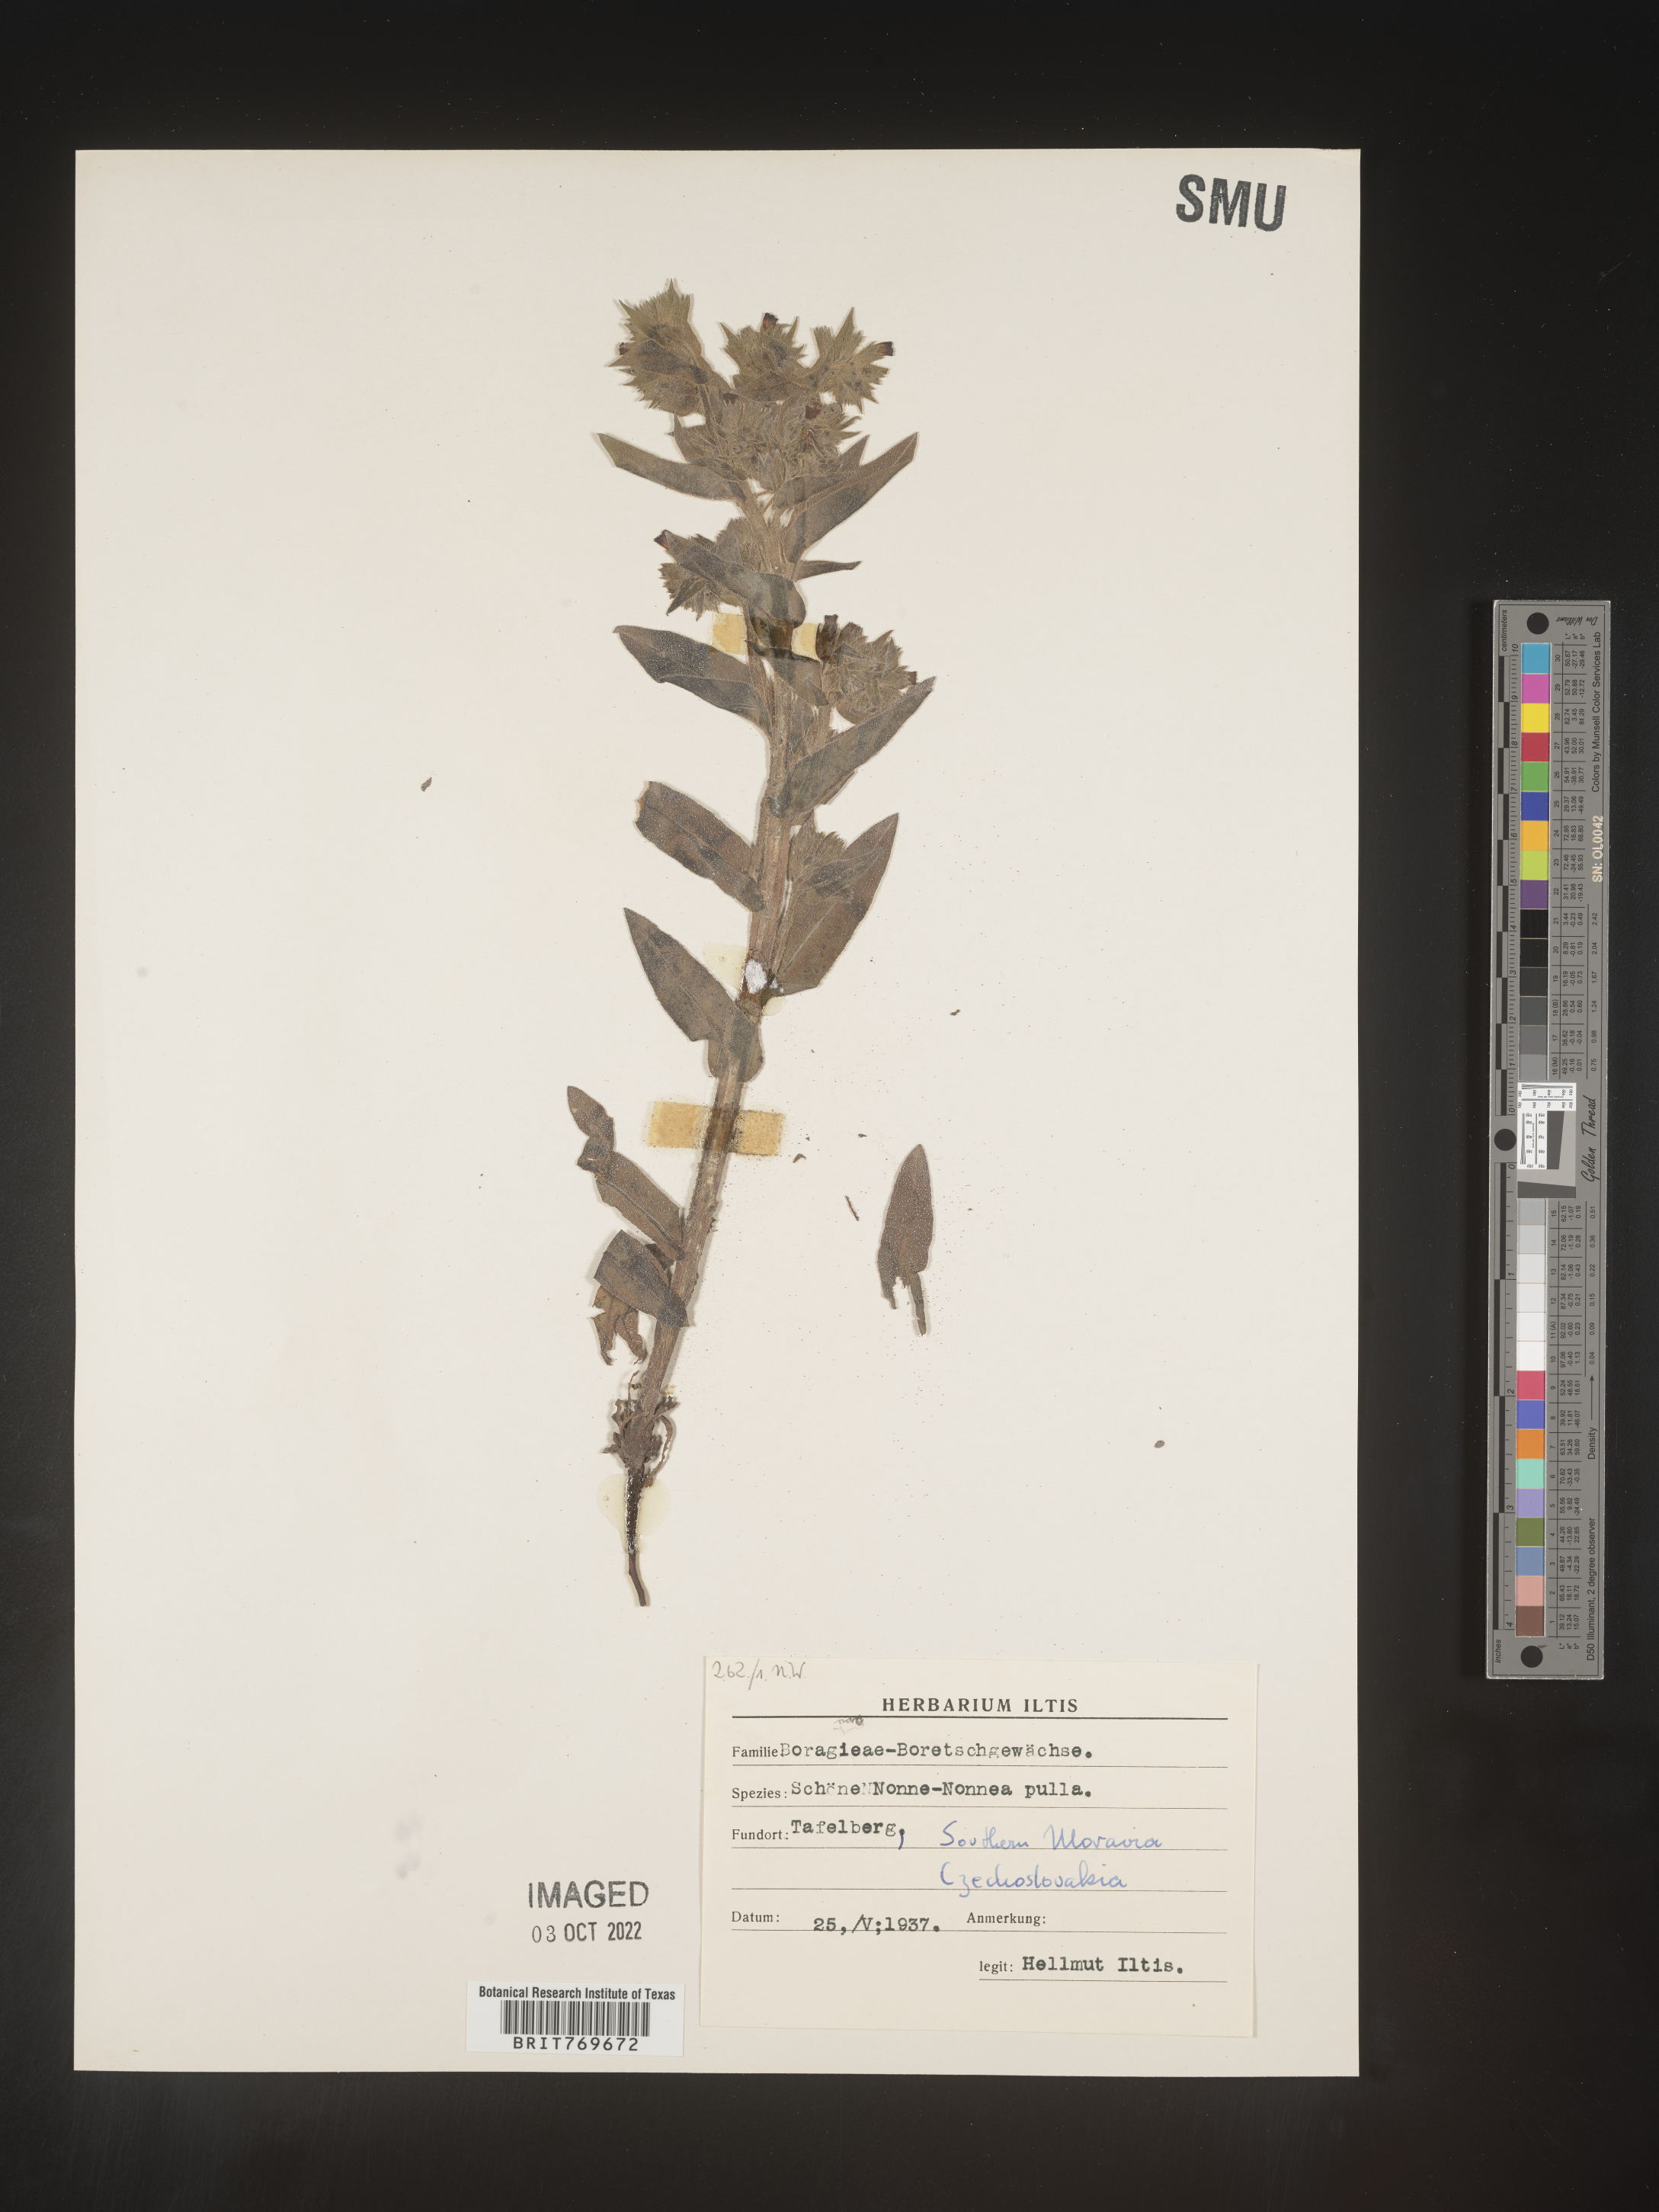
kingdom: Plantae
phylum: Tracheophyta
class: Magnoliopsida
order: Boraginales
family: Boraginaceae
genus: Nonea
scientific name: Nonea lutea
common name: Yellow nonea
